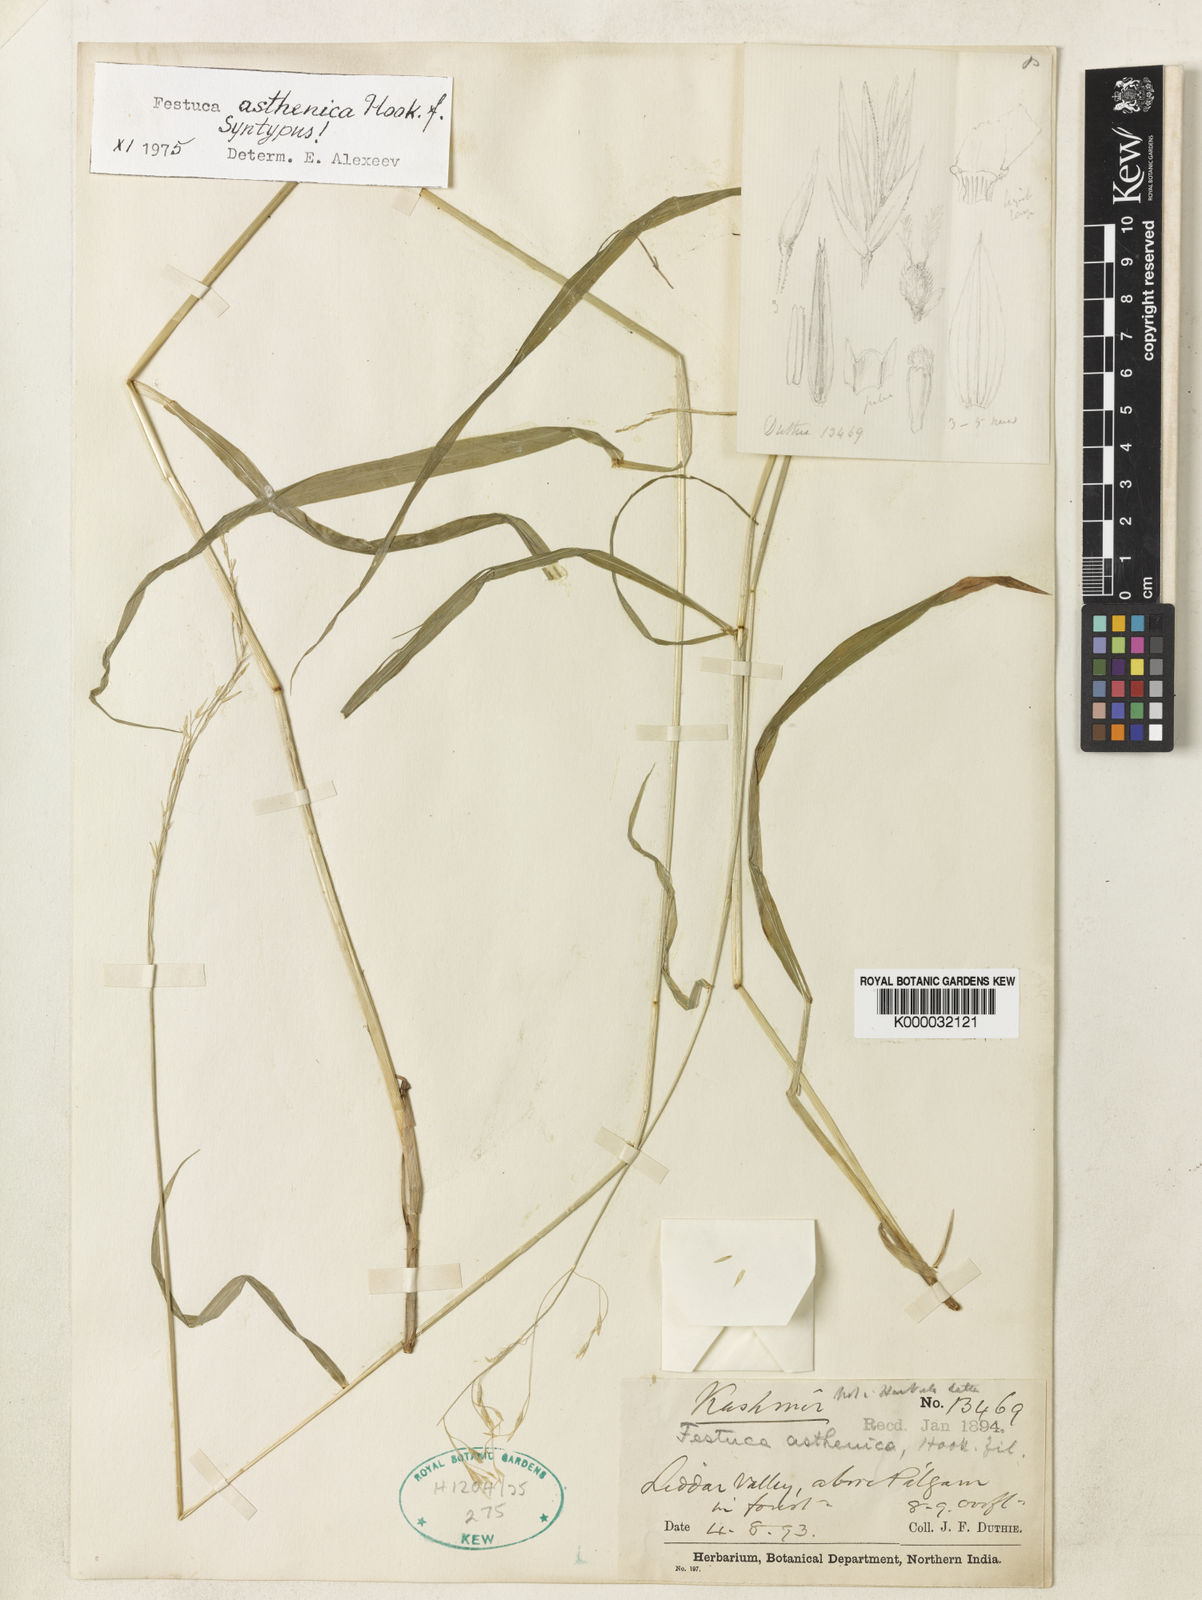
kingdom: Plantae
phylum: Tracheophyta
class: Liliopsida
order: Poales
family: Poaceae
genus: Festuca
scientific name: Festuca
